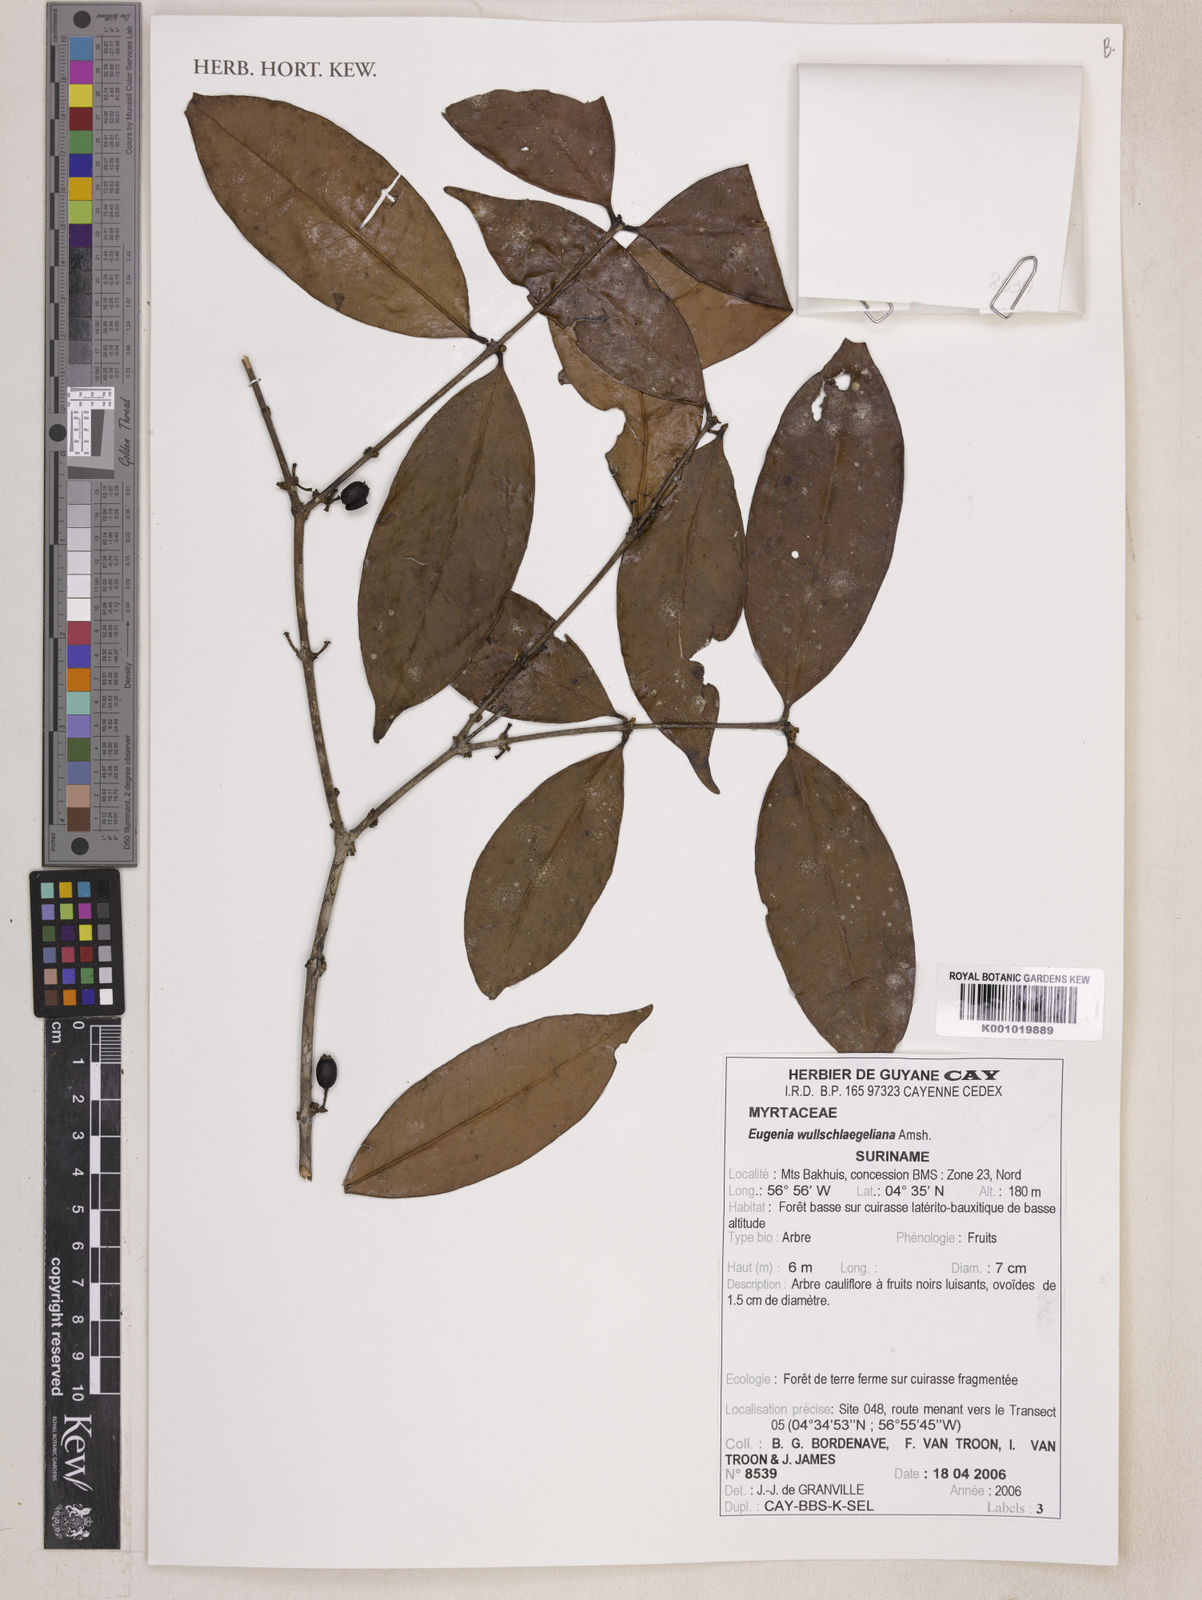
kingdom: Plantae
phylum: Tracheophyta
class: Magnoliopsida
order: Myrtales
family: Myrtaceae
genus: Eugenia
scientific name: Eugenia wullschlaegeliana
